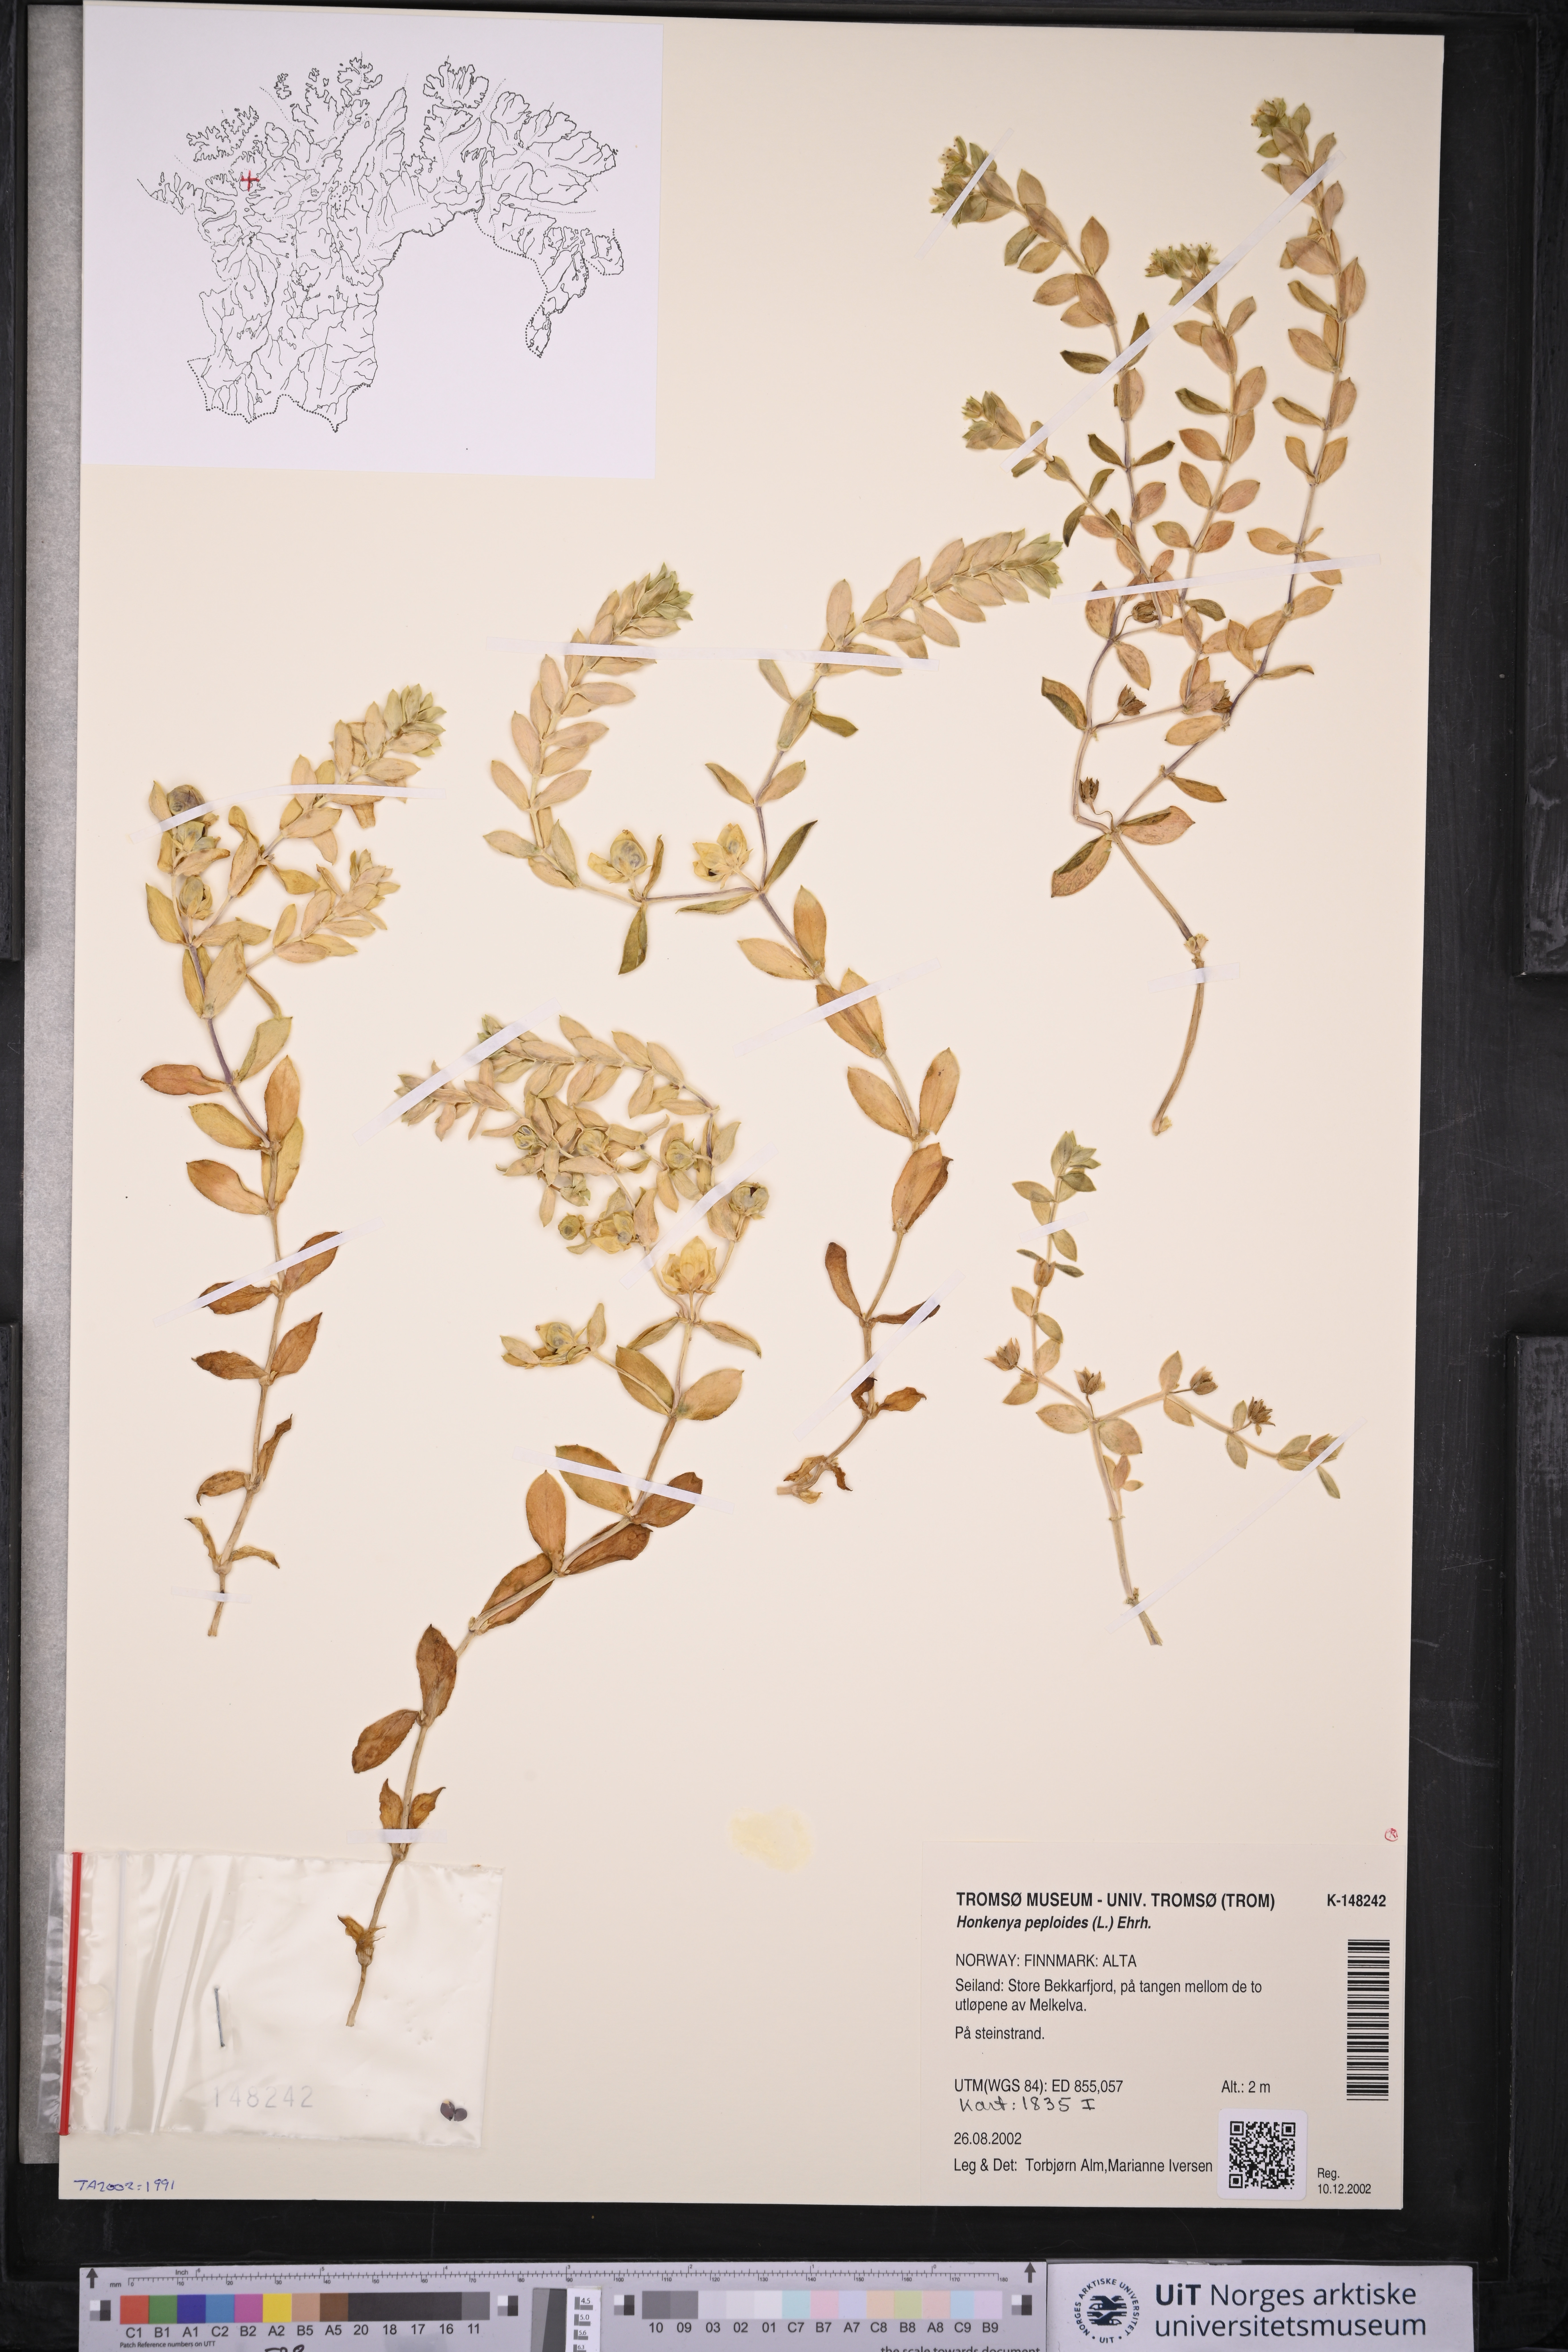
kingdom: Plantae
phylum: Tracheophyta
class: Magnoliopsida
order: Caryophyllales
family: Caryophyllaceae
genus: Honckenya
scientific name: Honckenya peploides
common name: Sea sandwort
